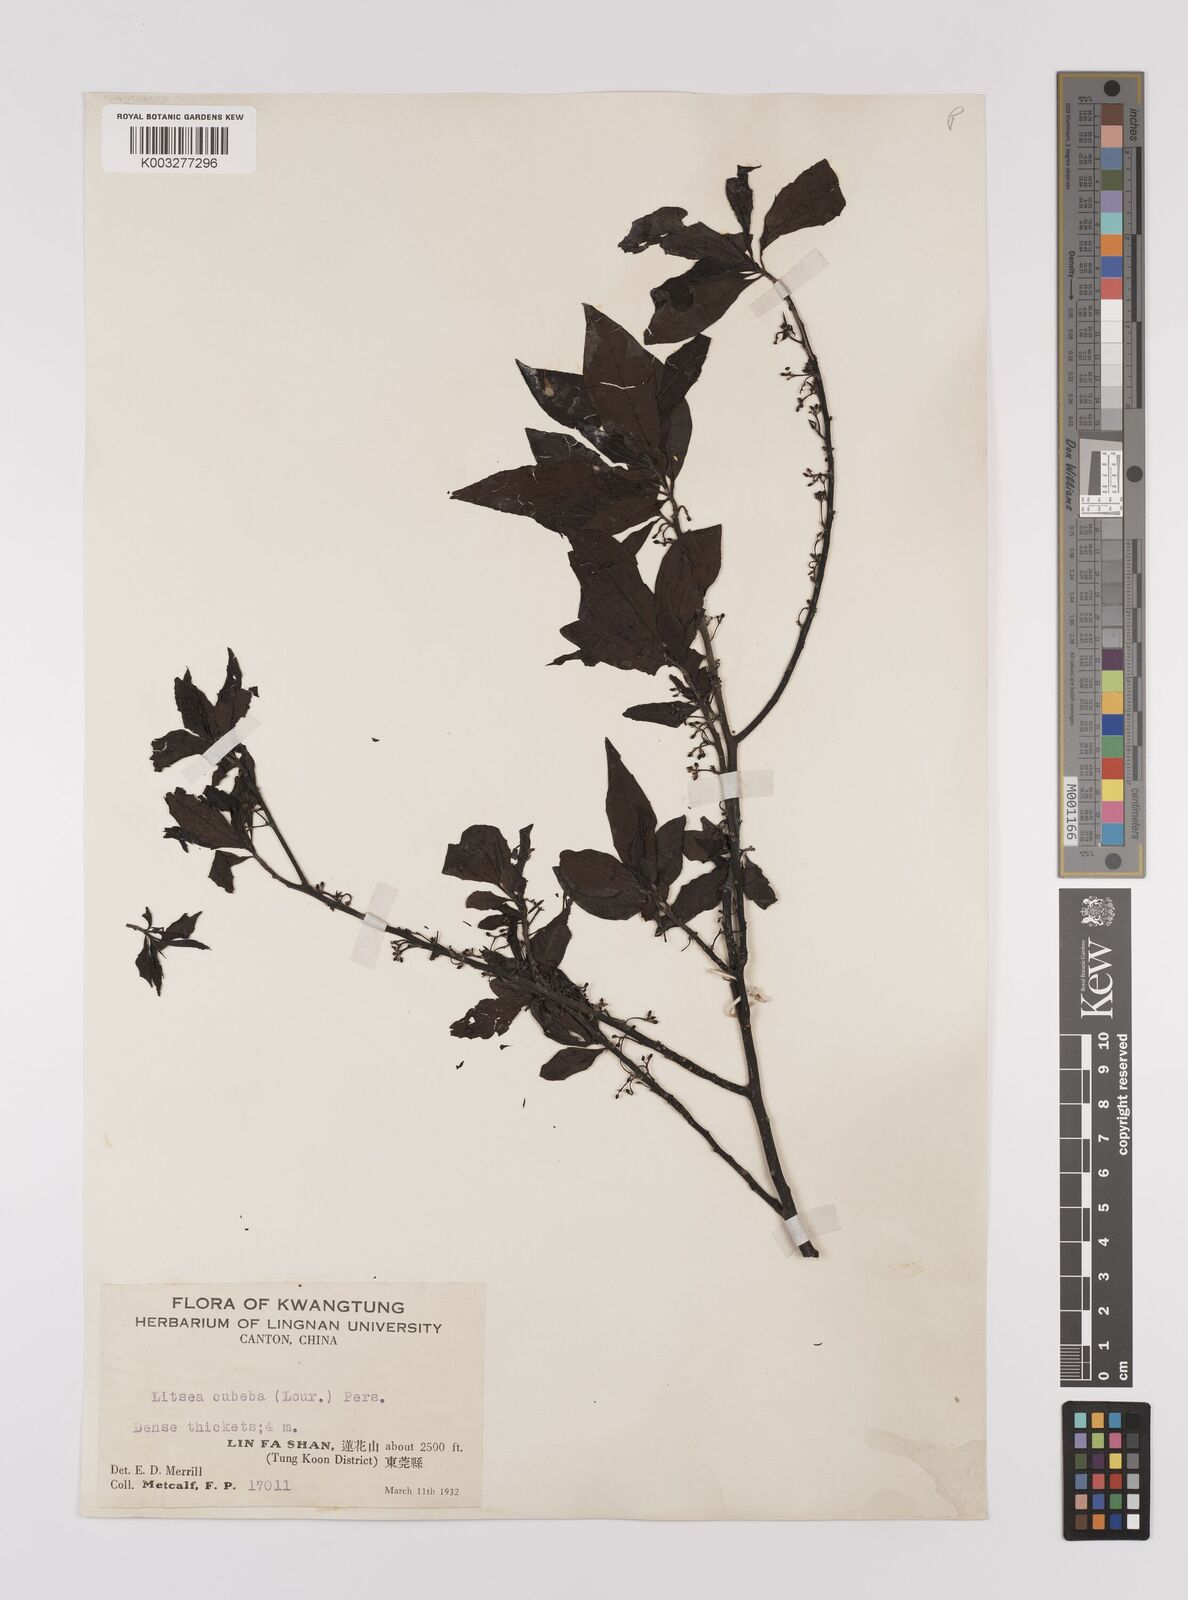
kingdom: Plantae
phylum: Tracheophyta
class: Magnoliopsida
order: Laurales
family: Lauraceae
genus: Litsea
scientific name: Litsea cubeba
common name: Mountain-pepper
